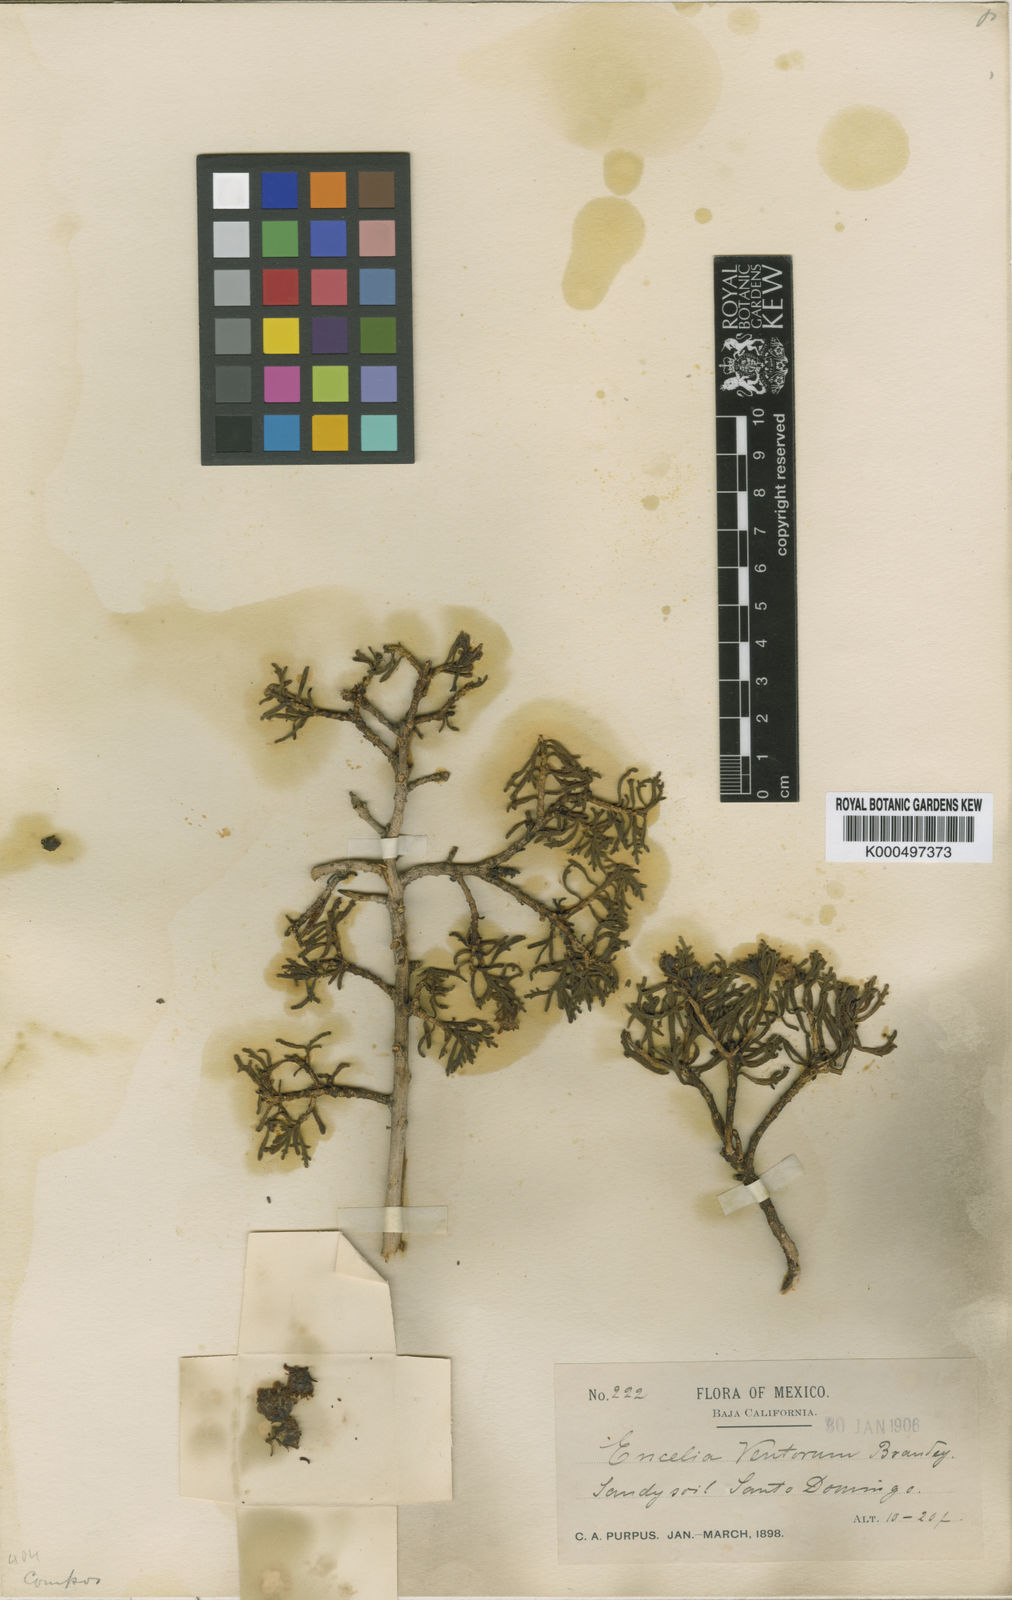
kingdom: Plantae
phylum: Tracheophyta
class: Magnoliopsida
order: Asterales
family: Asteraceae
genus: Encelia
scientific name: Encelia ventorum
